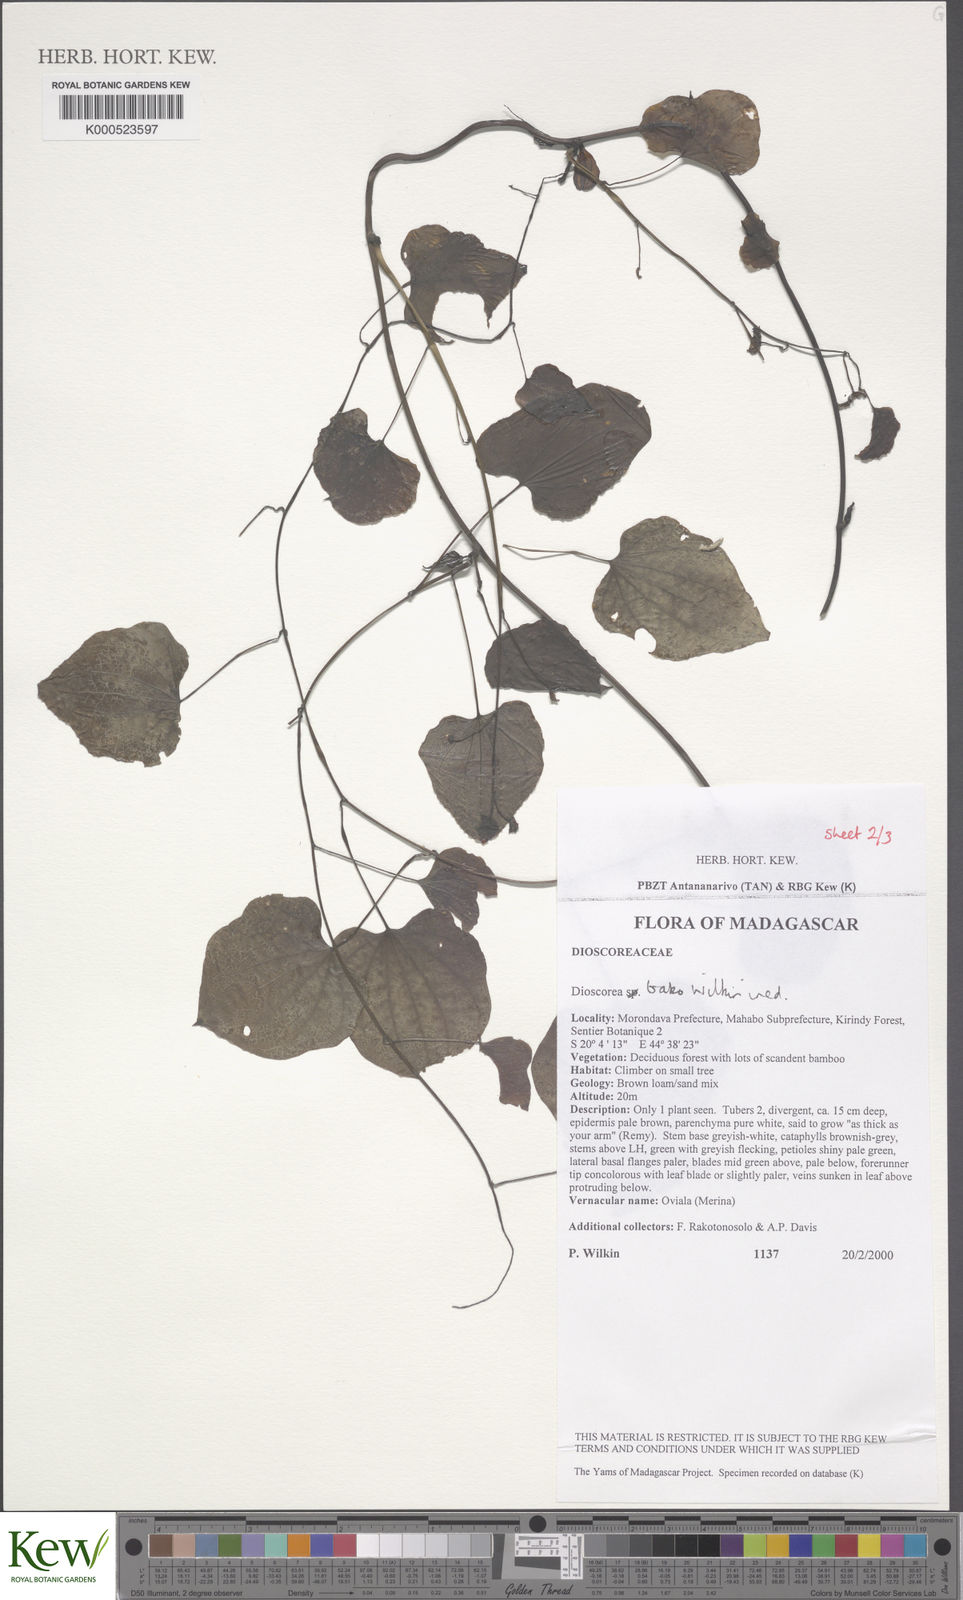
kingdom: Plantae
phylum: Tracheophyta
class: Liliopsida
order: Dioscoreales
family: Dioscoreaceae
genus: Dioscorea
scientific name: Dioscorea bako
